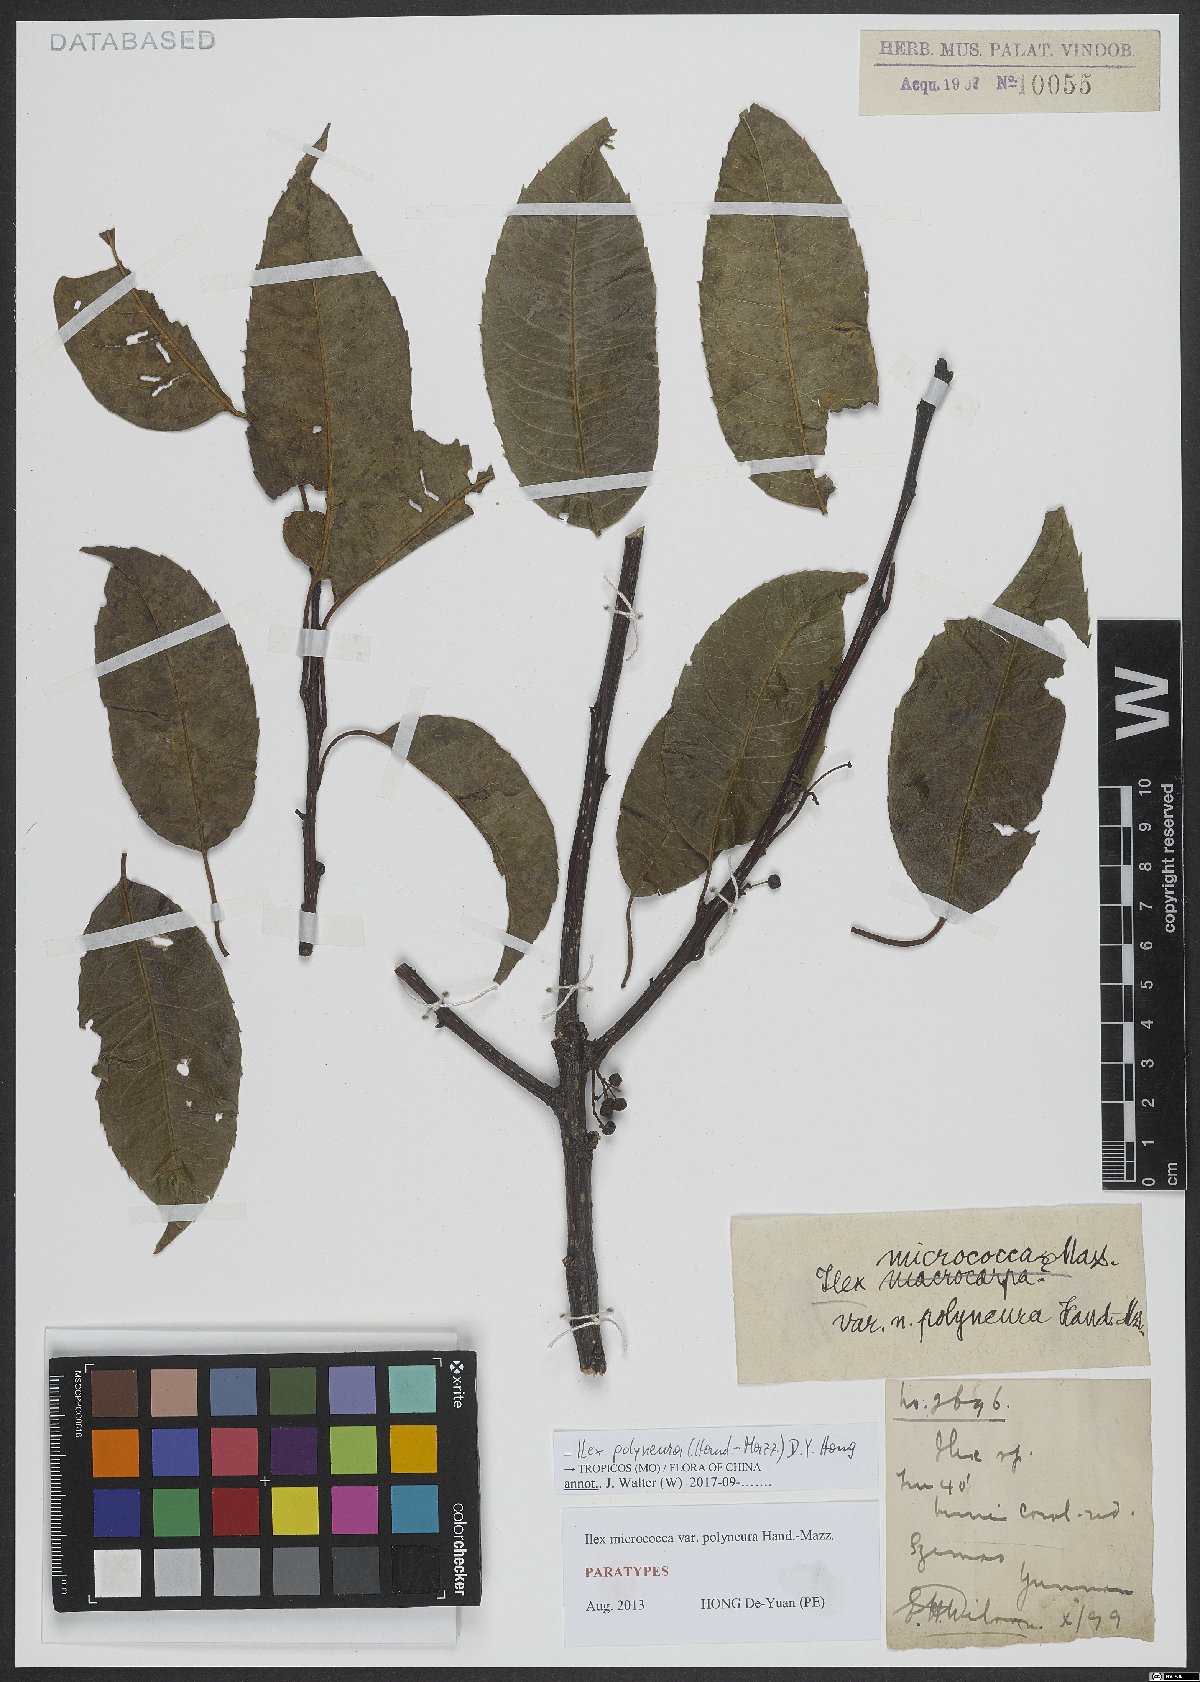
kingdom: Plantae
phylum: Tracheophyta
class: Magnoliopsida
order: Aquifoliales
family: Aquifoliaceae
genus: Ilex
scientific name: Ilex micrococca
